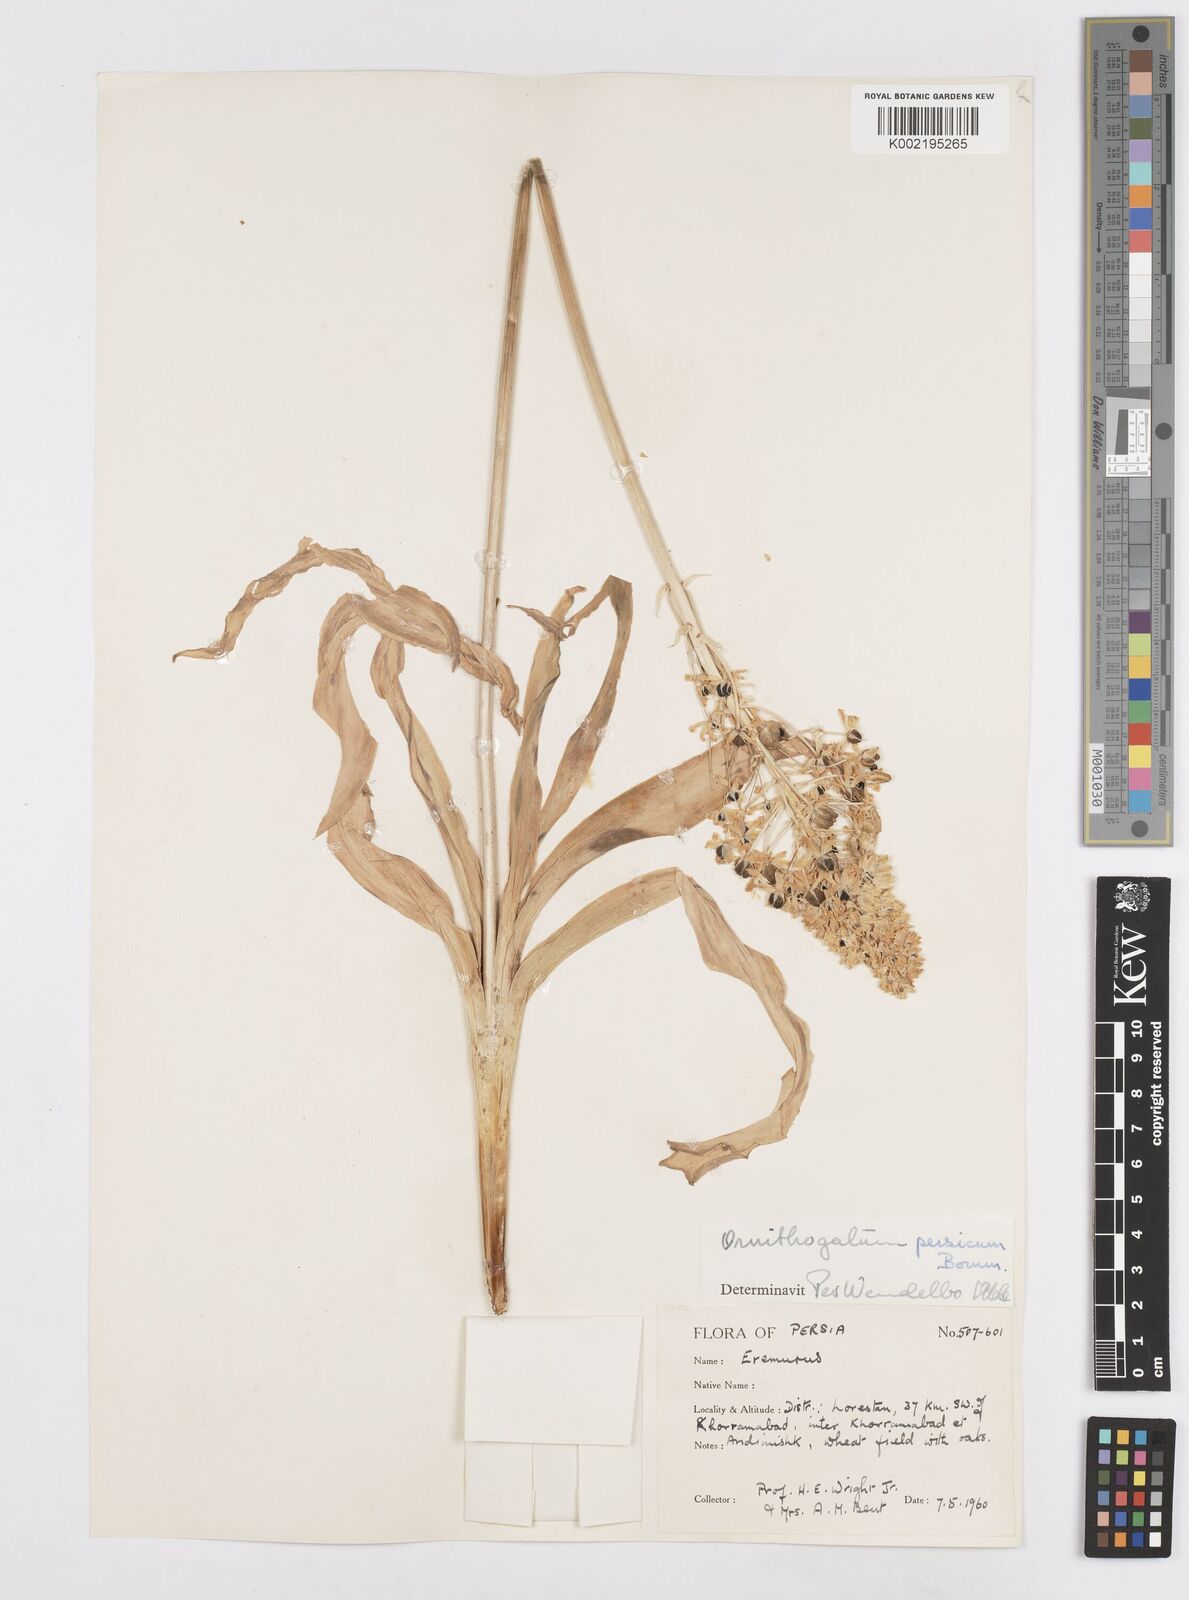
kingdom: Plantae
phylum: Tracheophyta
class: Liliopsida
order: Asparagales
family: Asparagaceae
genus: Ornithogalum
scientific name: Ornithogalum persicum
